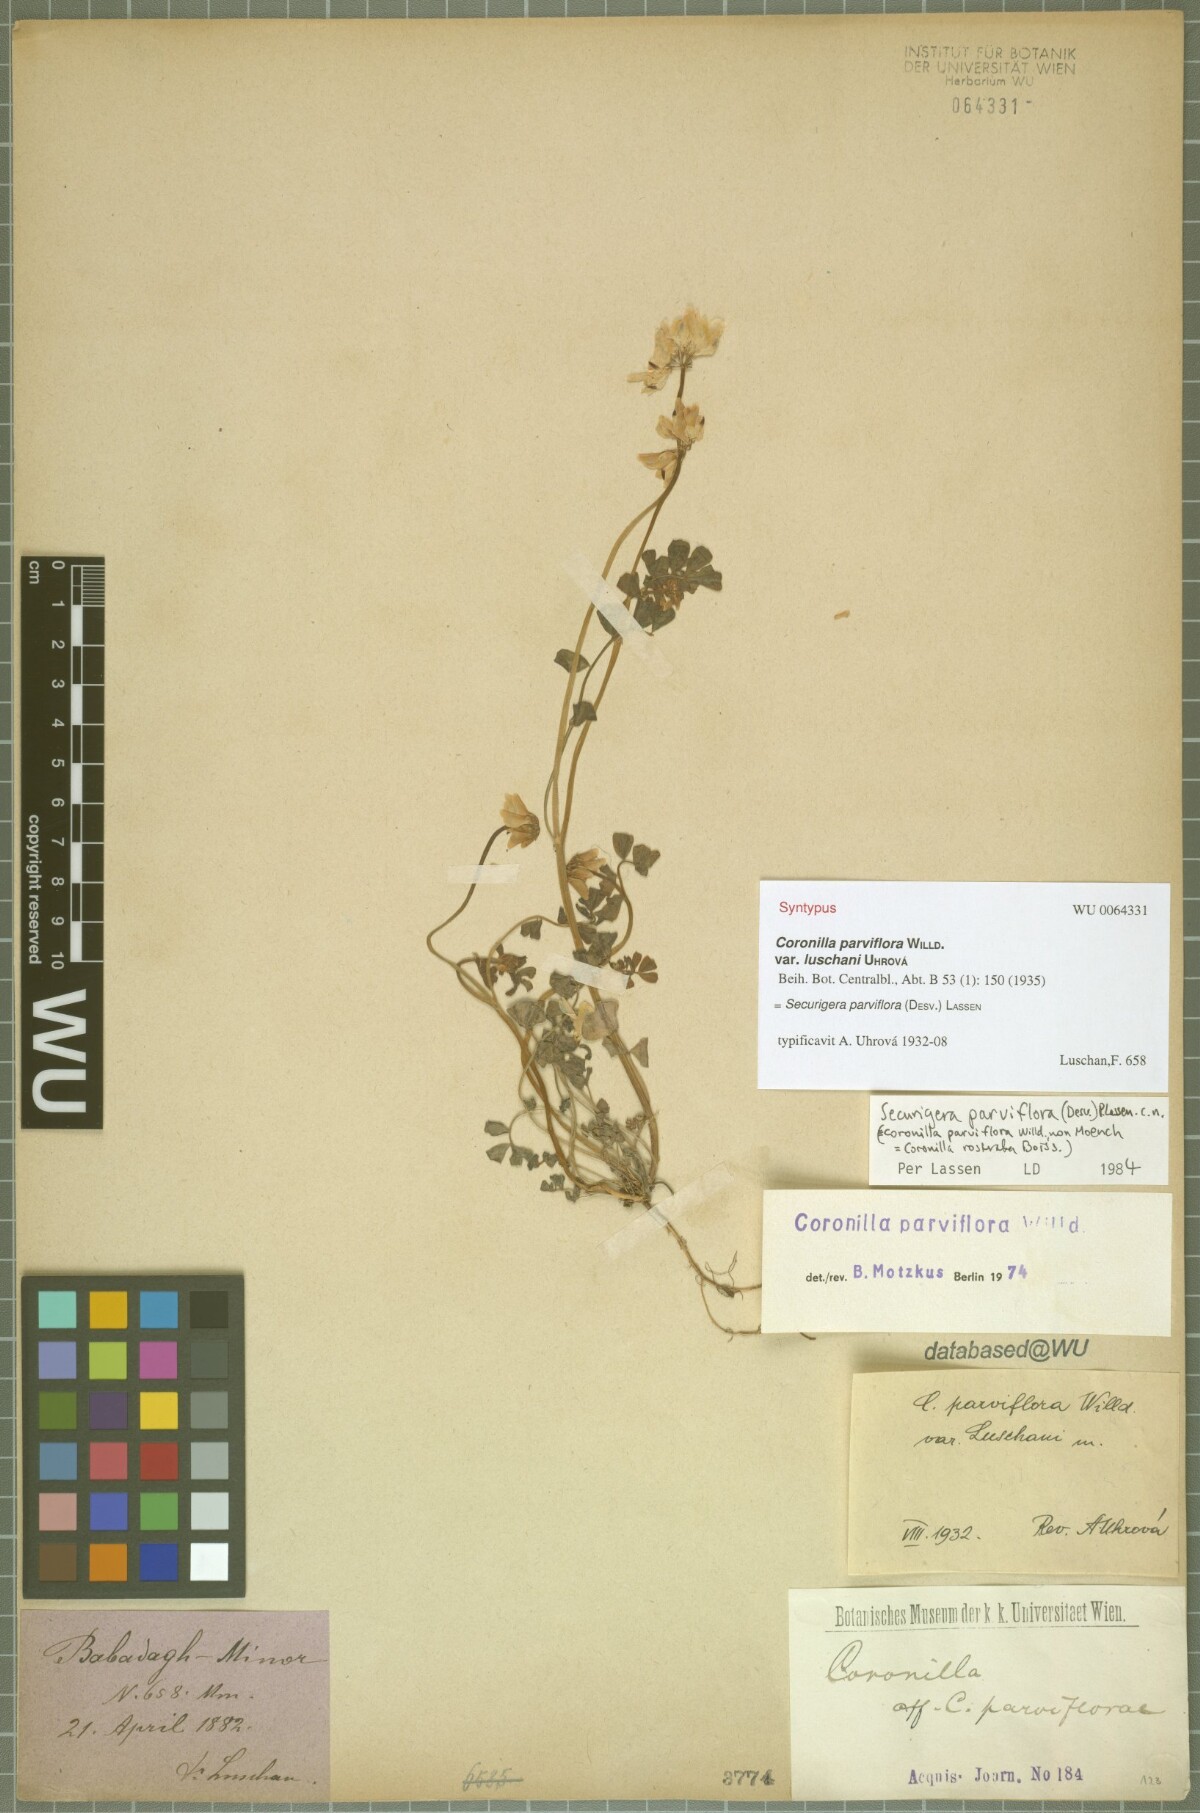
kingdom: Plantae
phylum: Tracheophyta
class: Magnoliopsida
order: Fabales
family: Fabaceae
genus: Coronilla
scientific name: Coronilla
